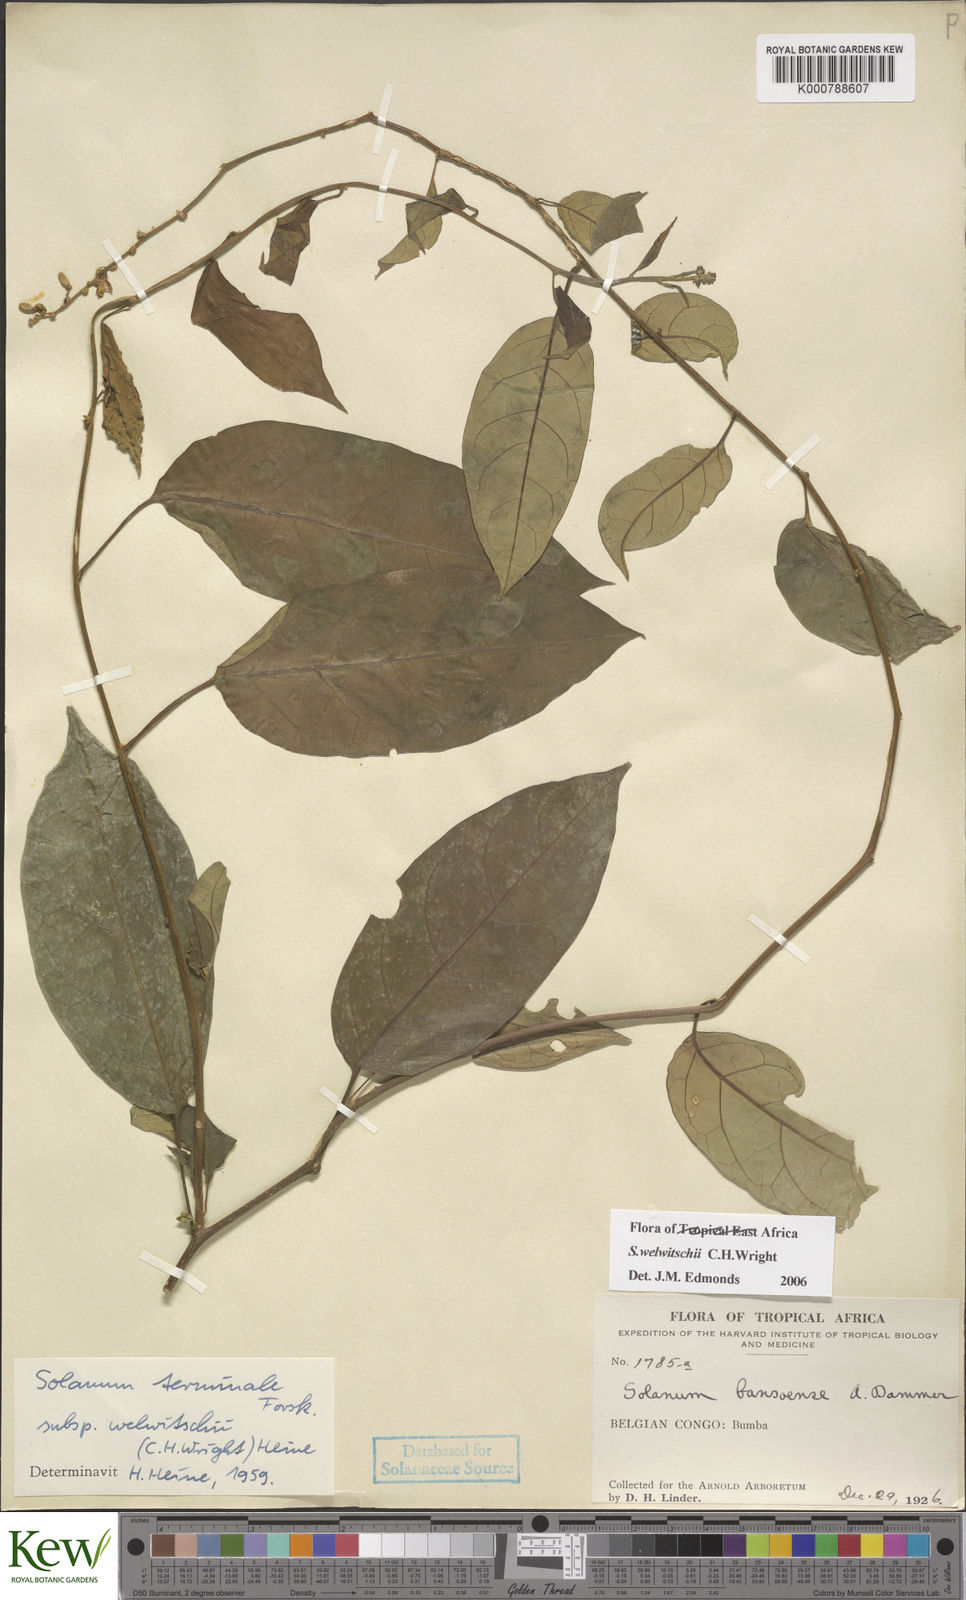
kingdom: Plantae
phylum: Tracheophyta
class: Magnoliopsida
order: Solanales
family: Solanaceae
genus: Solanum
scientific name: Solanum terminale
